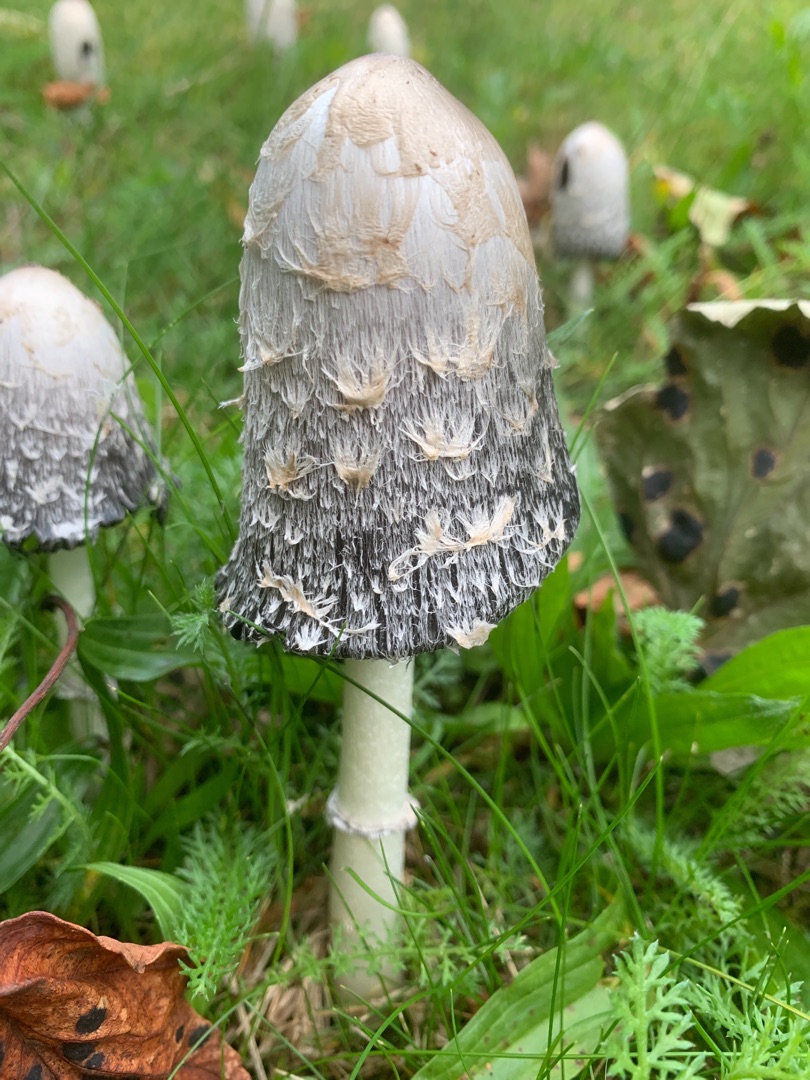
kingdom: Fungi
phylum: Basidiomycota
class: Agaricomycetes
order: Agaricales
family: Agaricaceae
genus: Coprinus
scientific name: Coprinus comatus
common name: Stor parykhat
